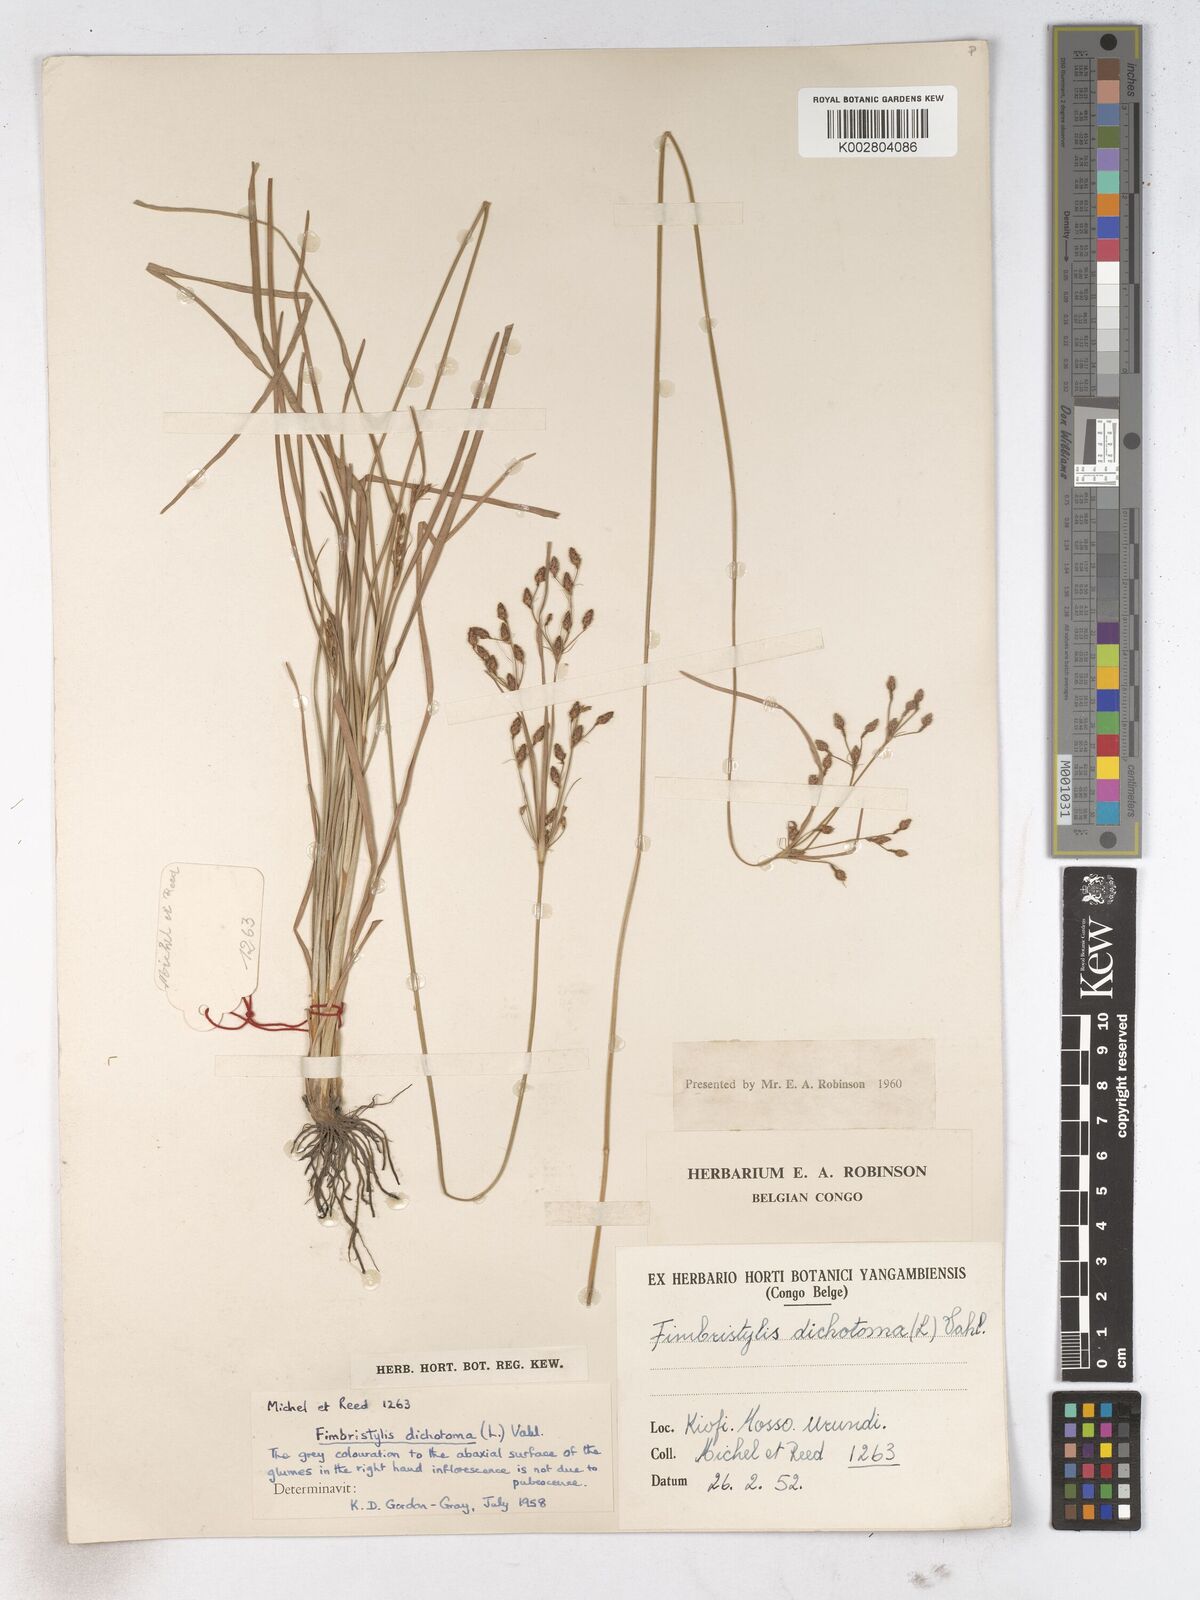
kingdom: Plantae
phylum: Tracheophyta
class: Liliopsida
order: Poales
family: Cyperaceae
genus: Fimbristylis
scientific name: Fimbristylis dichotoma
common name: Forked fimbry
